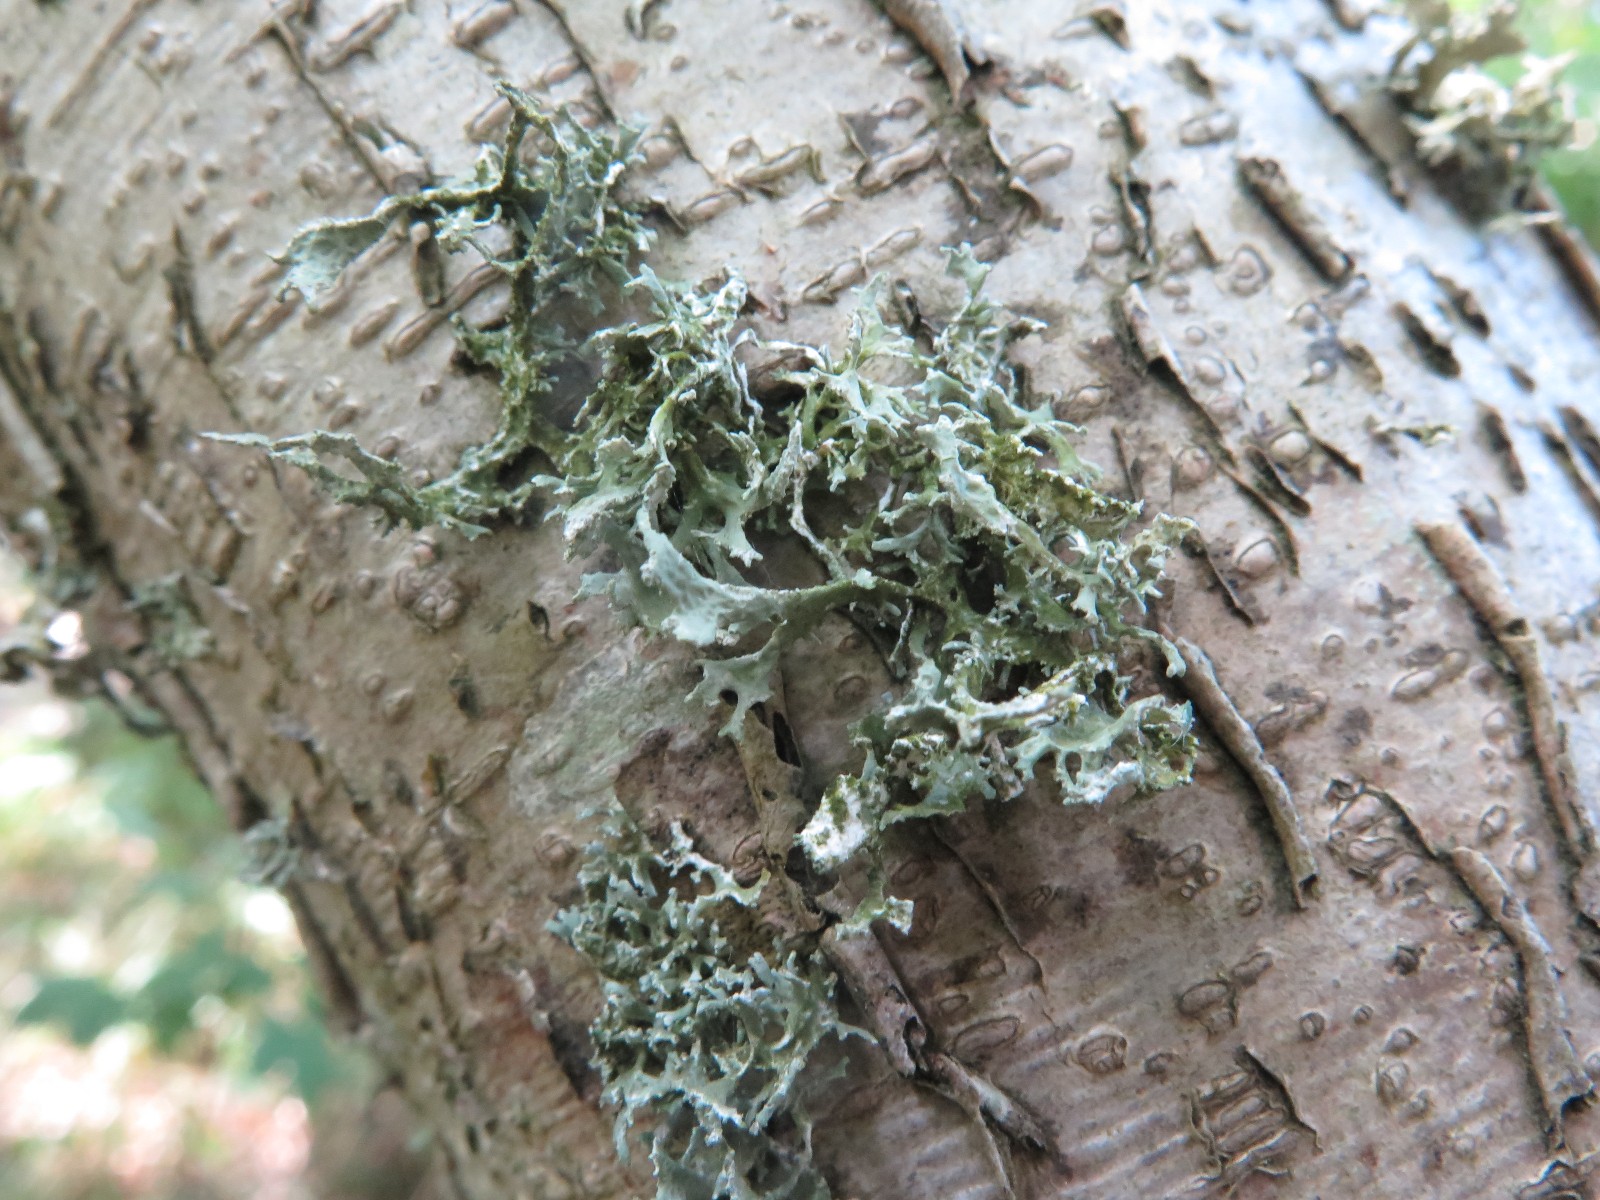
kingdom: Fungi
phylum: Ascomycota
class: Lecanoromycetes
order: Lecanorales
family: Parmeliaceae
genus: Evernia
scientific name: Evernia prunastri
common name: almindelig slåenlav
